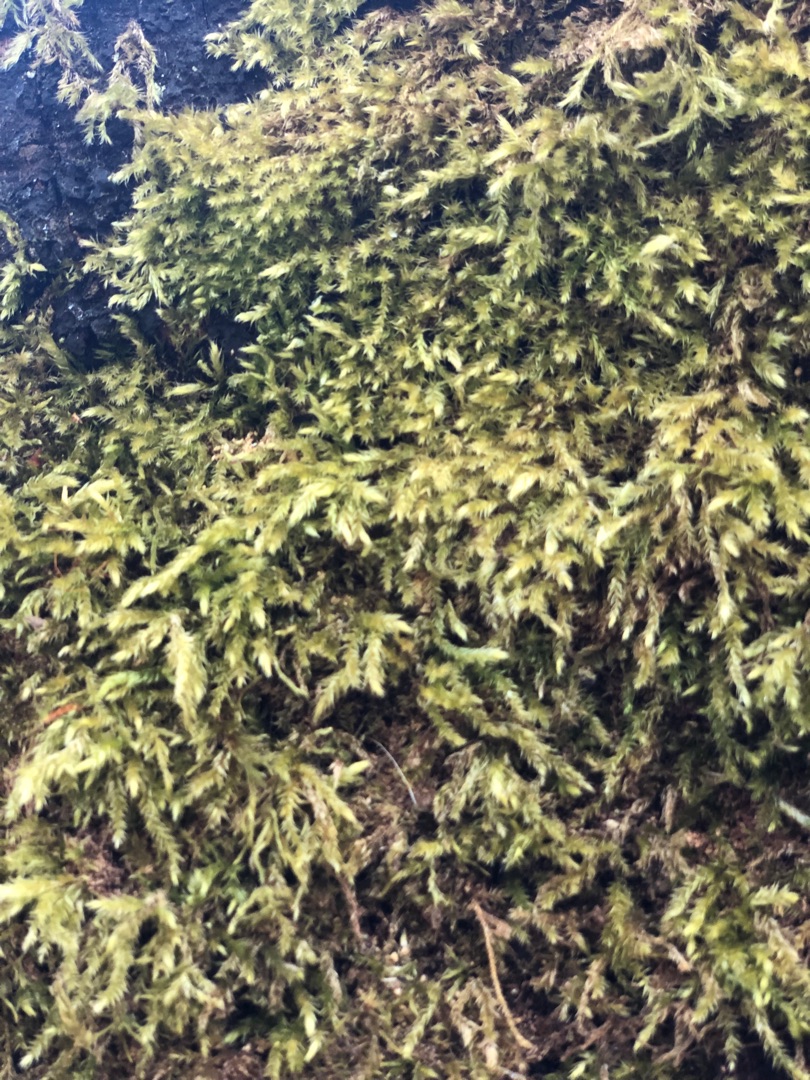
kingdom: Plantae
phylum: Bryophyta
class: Bryopsida
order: Hypnales
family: Brachytheciaceae
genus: Brachythecium
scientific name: Brachythecium rutabulum
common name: Almindelig kortkapsel
